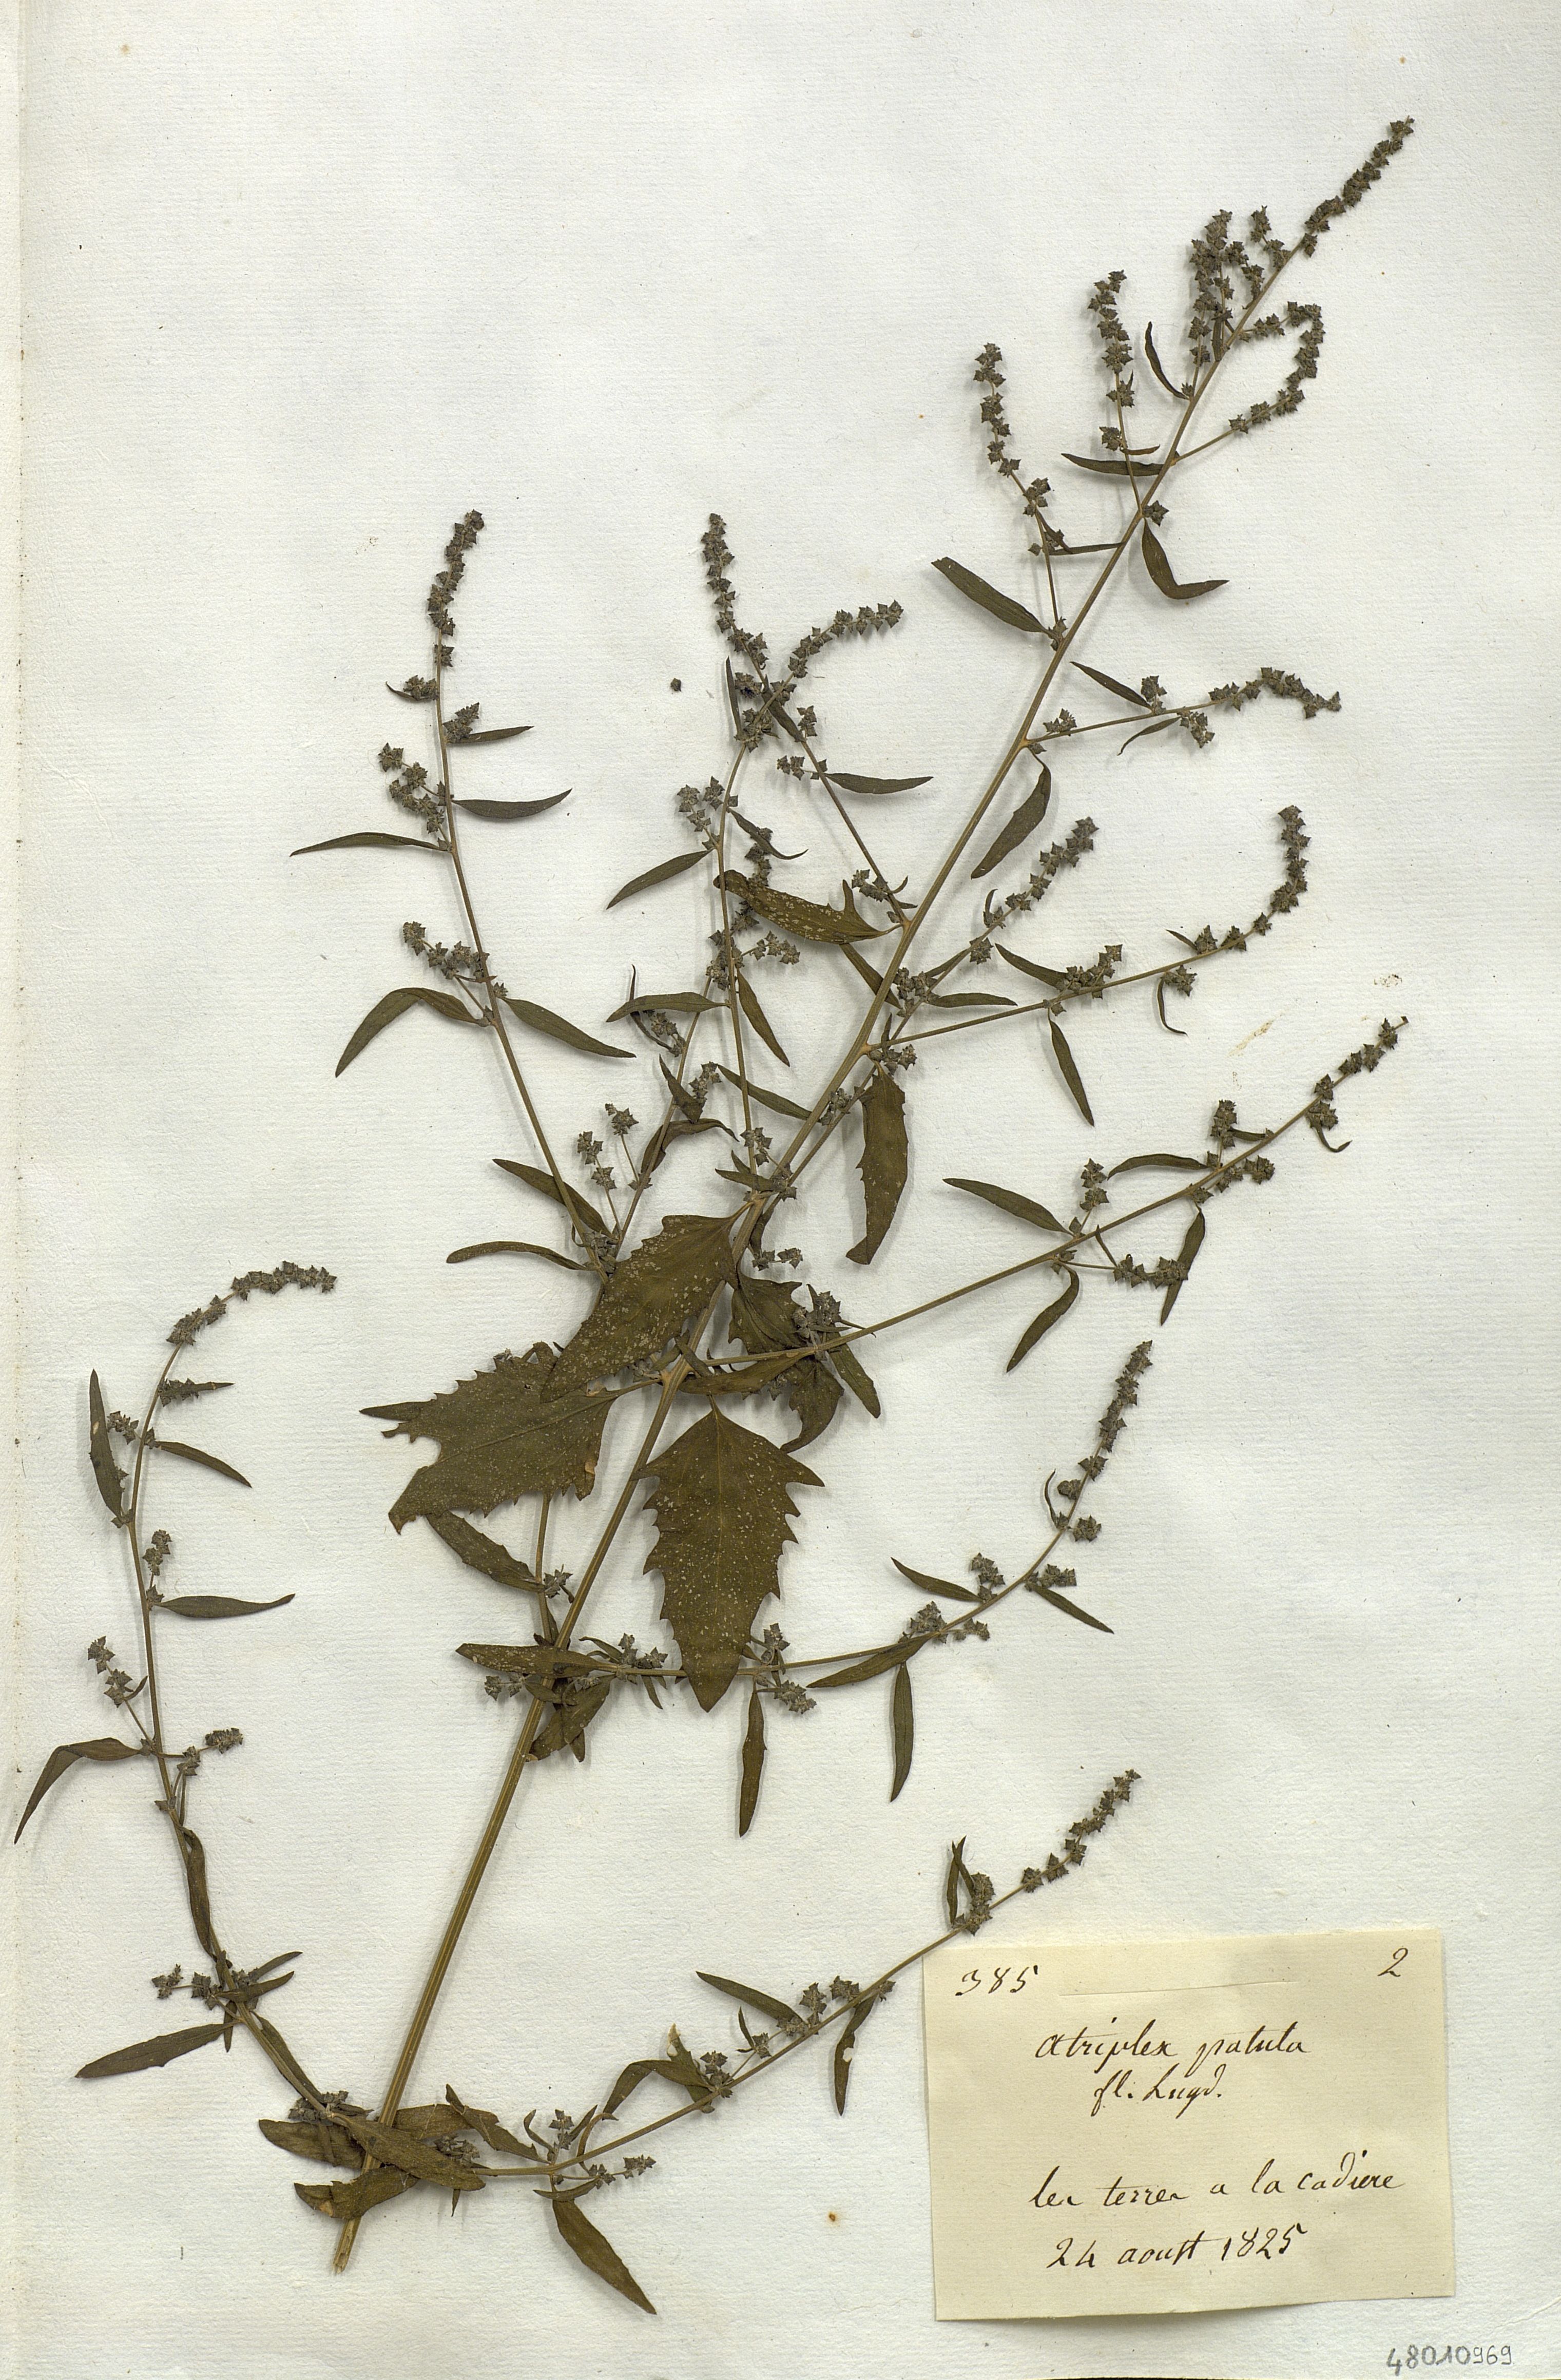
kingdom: Plantae
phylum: Tracheophyta
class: Magnoliopsida
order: Caryophyllales
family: Amaranthaceae
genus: Atriplex
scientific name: Atriplex patula
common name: Common orache
